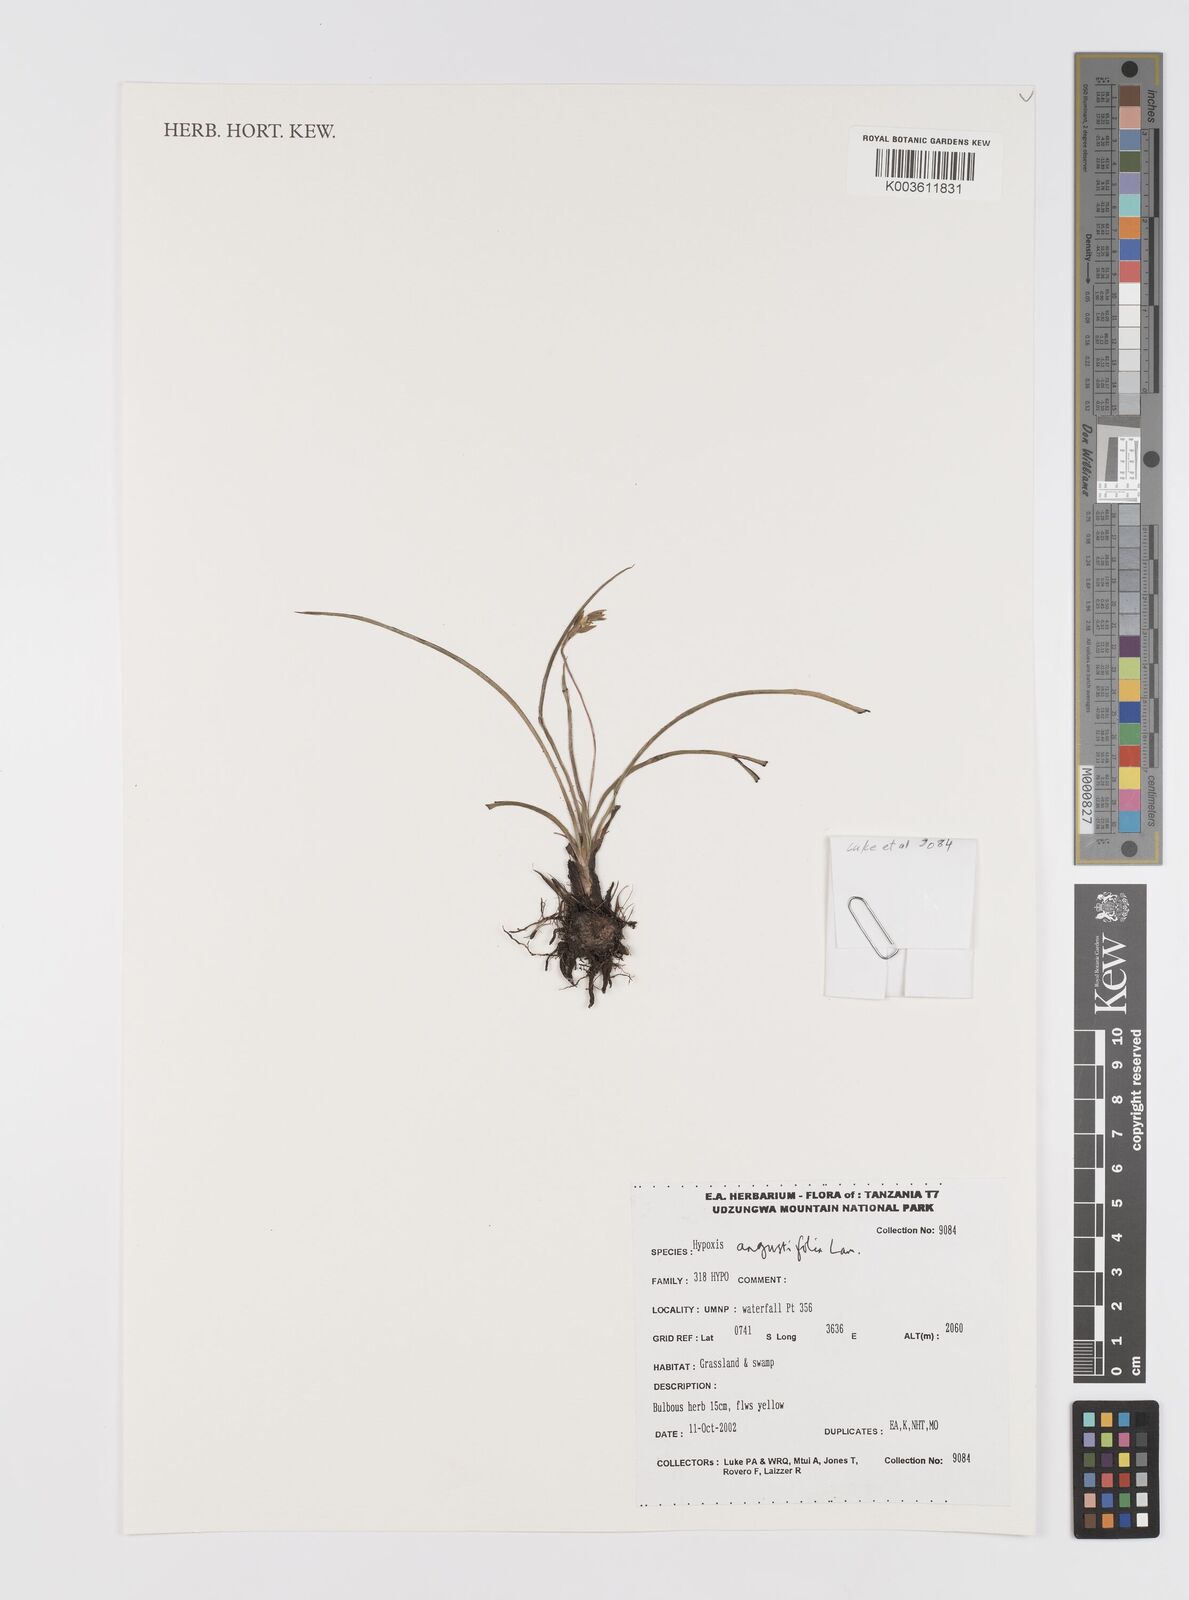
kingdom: Plantae
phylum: Tracheophyta
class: Liliopsida
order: Asparagales
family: Hypoxidaceae
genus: Hypoxis
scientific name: Hypoxis angustifolia
